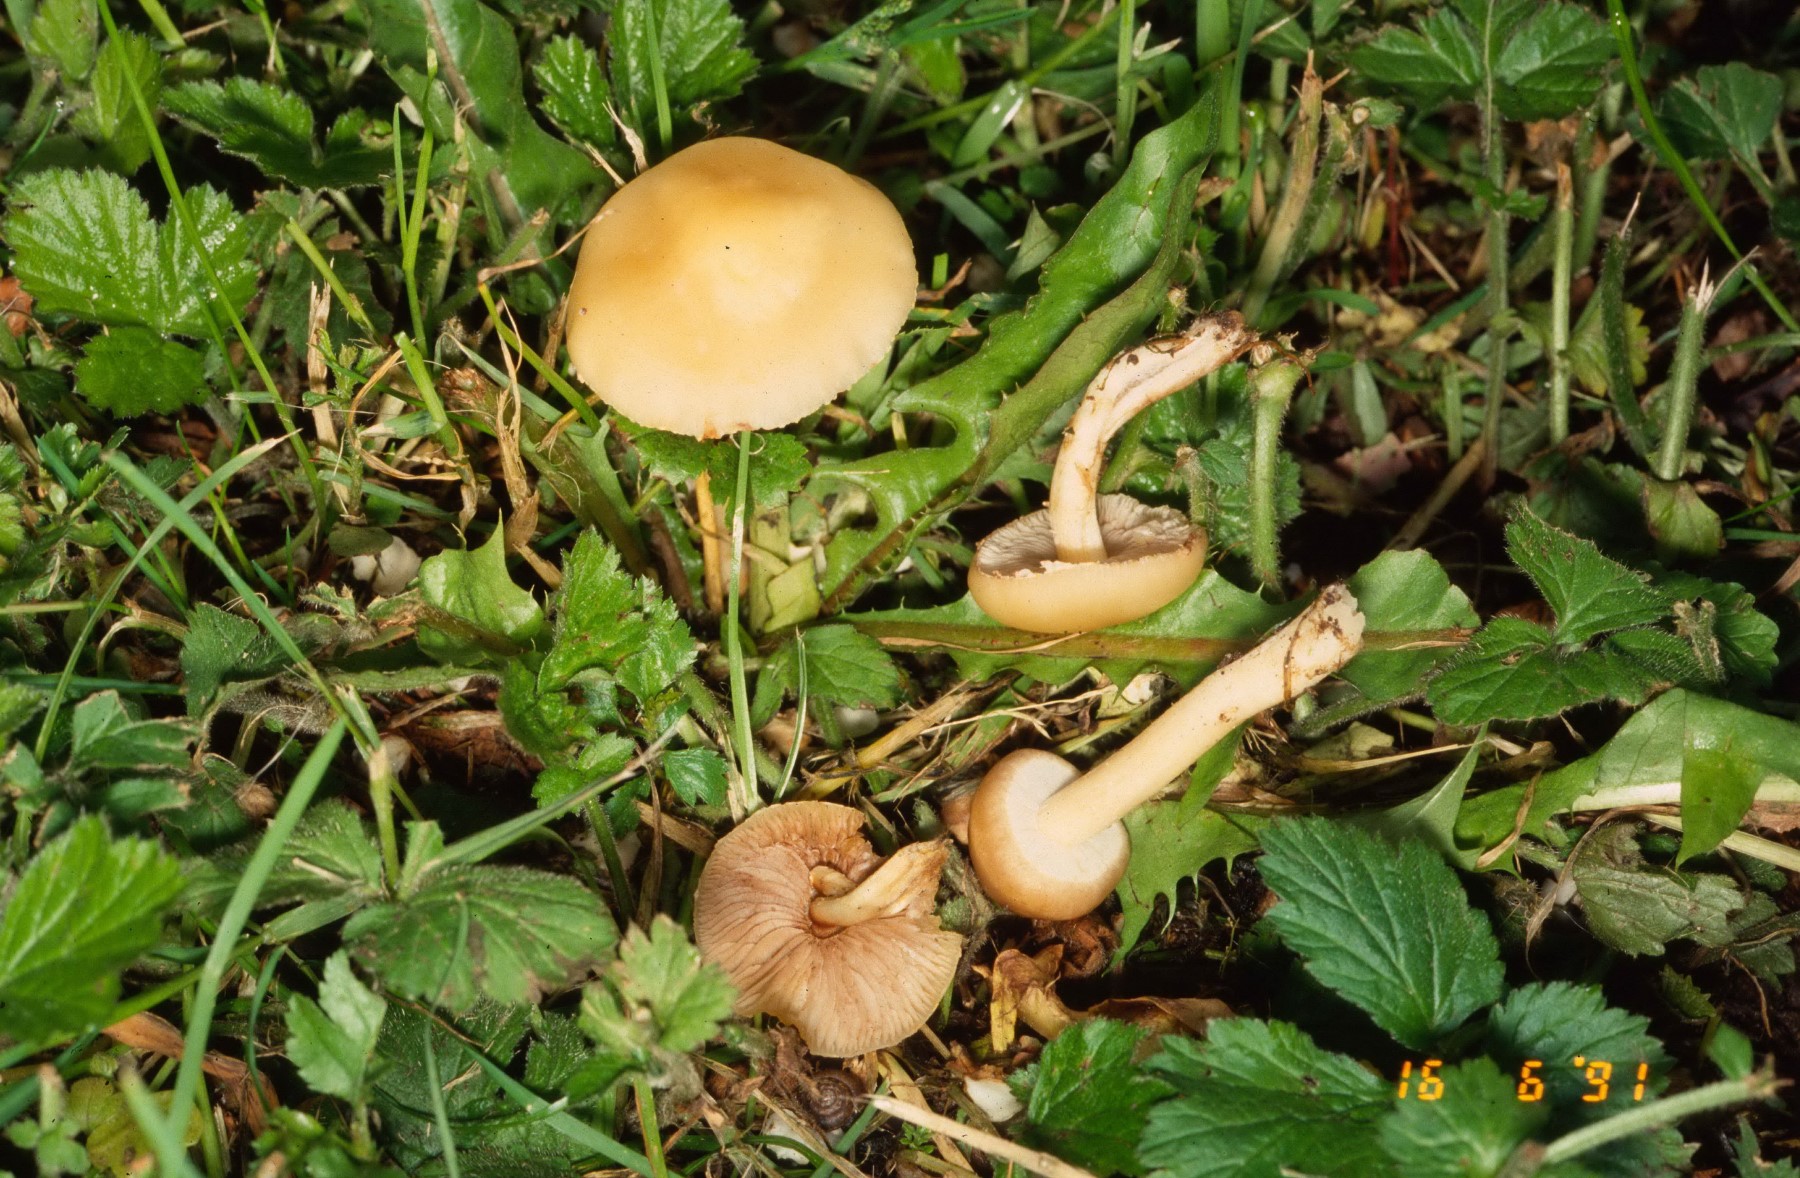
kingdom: Fungi
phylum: Basidiomycota
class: Agaricomycetes
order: Agaricales
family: Strophariaceae
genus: Agrocybe
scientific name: Agrocybe
